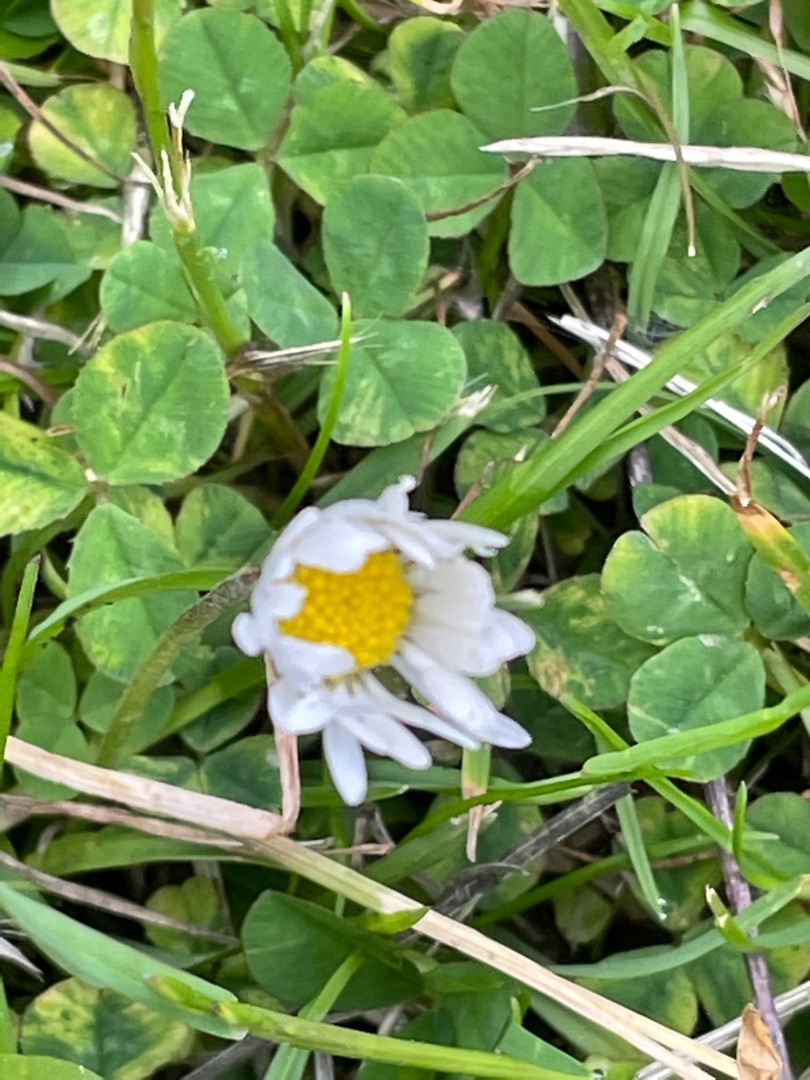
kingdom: Plantae
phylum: Tracheophyta
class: Magnoliopsida
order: Asterales
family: Asteraceae
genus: Bellis
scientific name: Bellis perennis
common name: Tusindfryd
